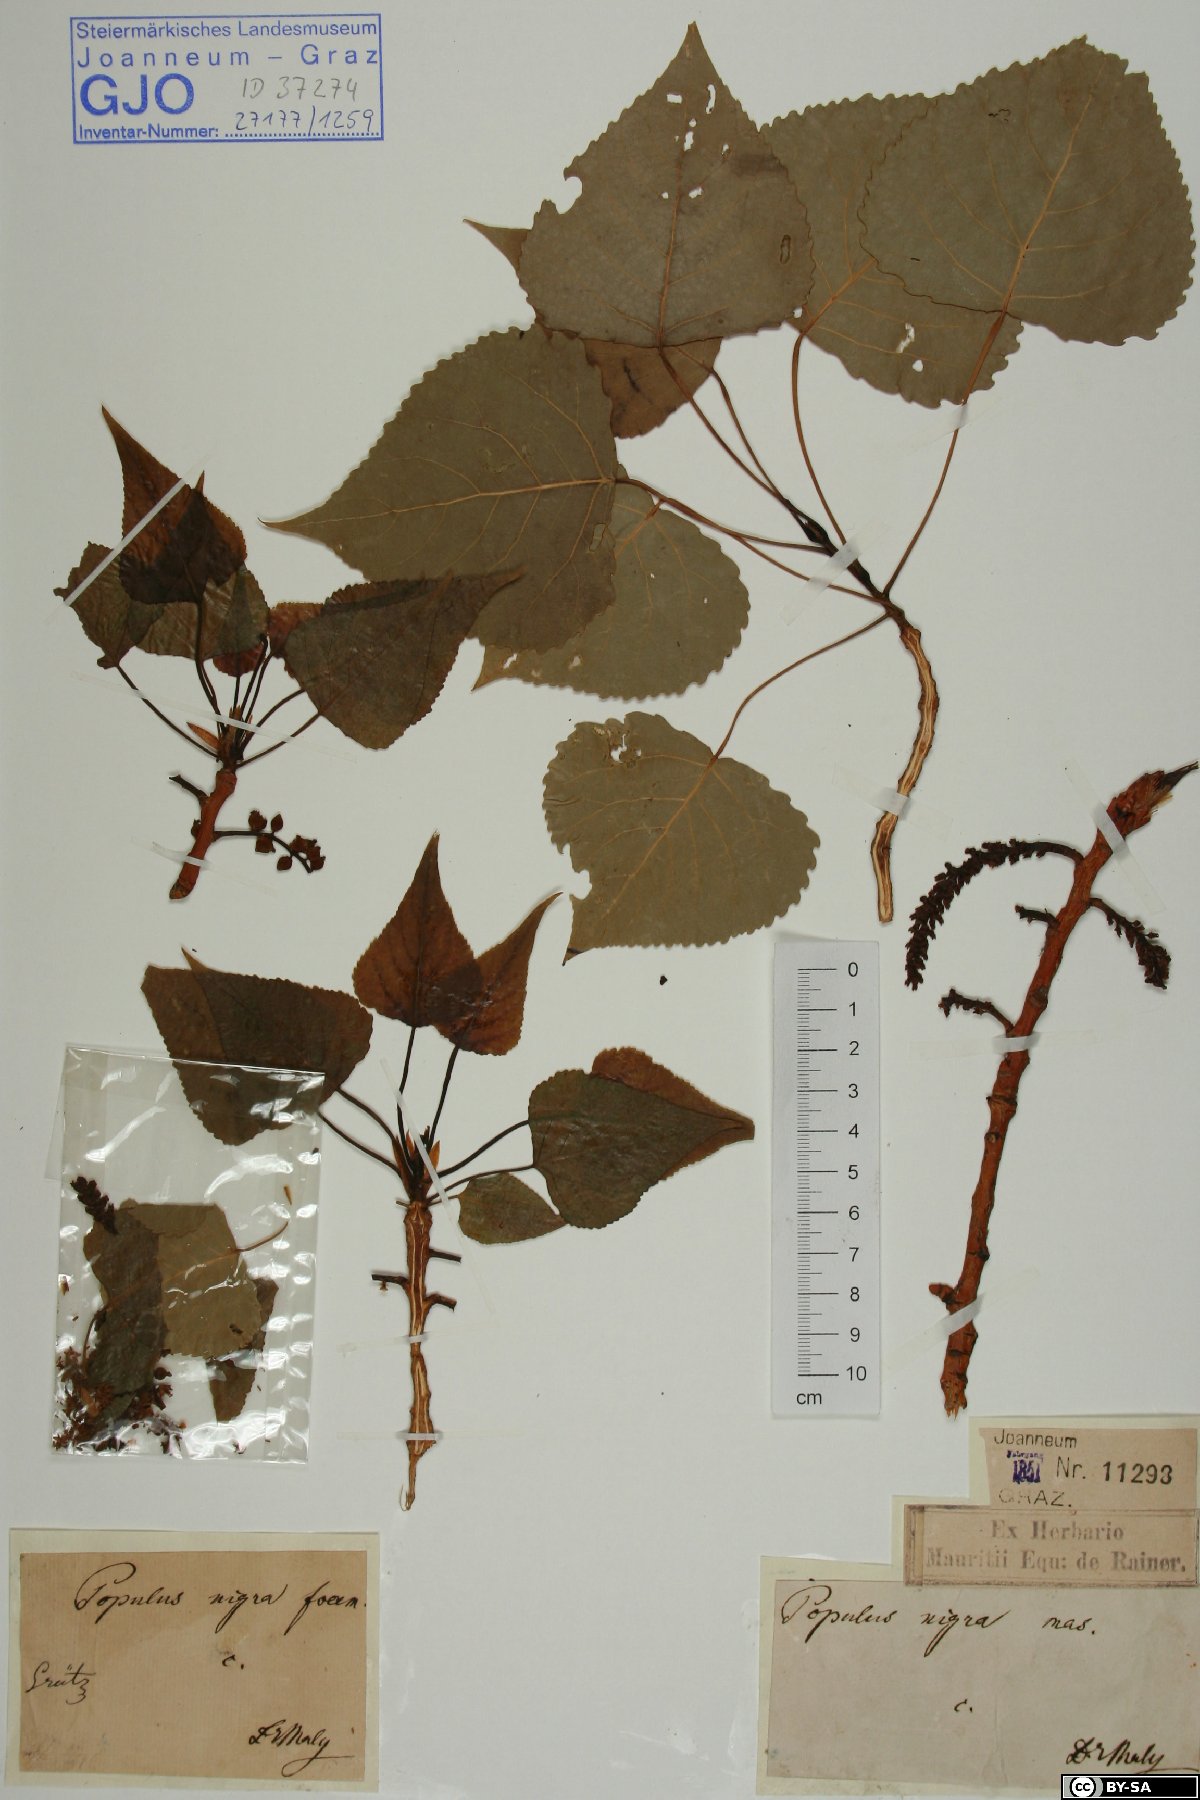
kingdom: Plantae
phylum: Tracheophyta
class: Magnoliopsida
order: Malpighiales
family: Salicaceae
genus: Populus
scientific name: Populus nigra
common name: Black poplar
